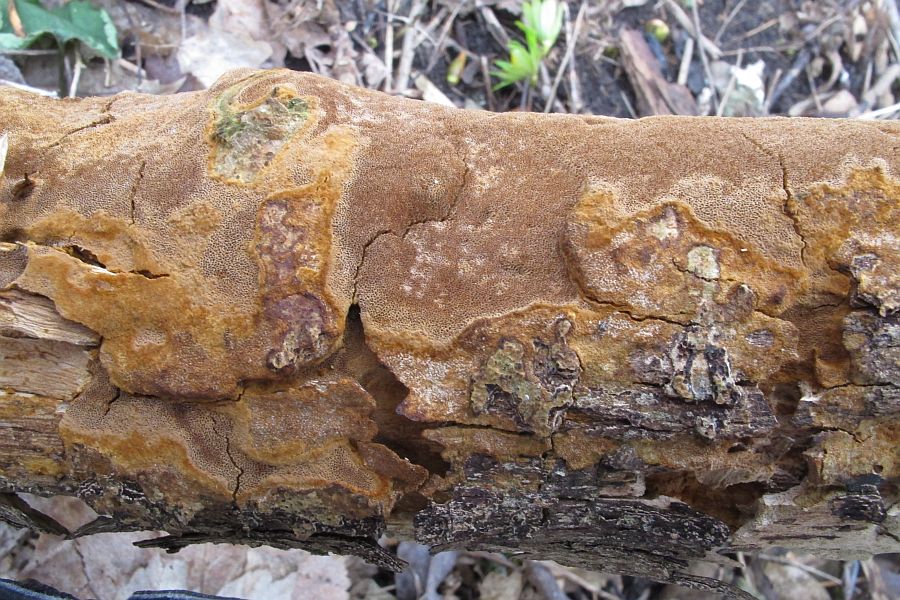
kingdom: Fungi
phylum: Basidiomycota
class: Agaricomycetes
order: Hymenochaetales
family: Hymenochaetaceae
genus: Fuscoporia
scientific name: Fuscoporia ferrea
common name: skorpe-ildporesvamp
